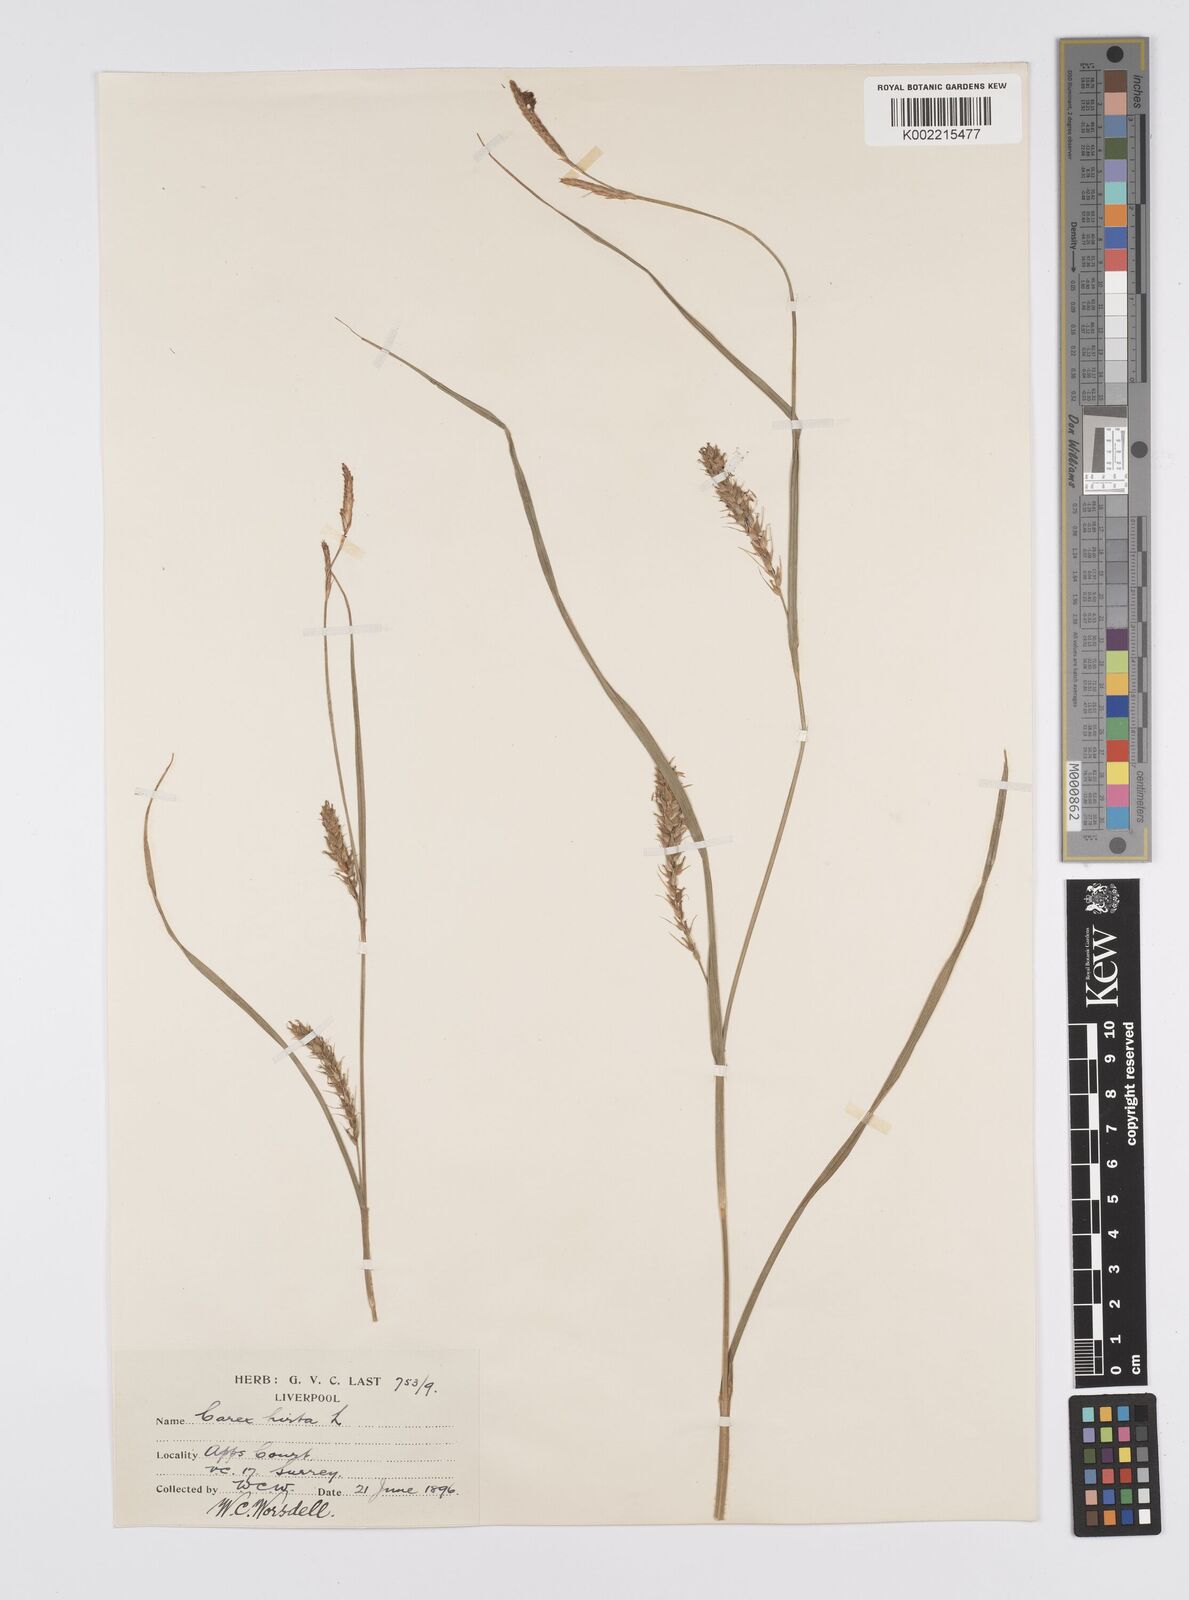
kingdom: Plantae
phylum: Tracheophyta
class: Liliopsida
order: Poales
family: Cyperaceae
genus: Carex
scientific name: Carex hirta
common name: Hairy sedge
